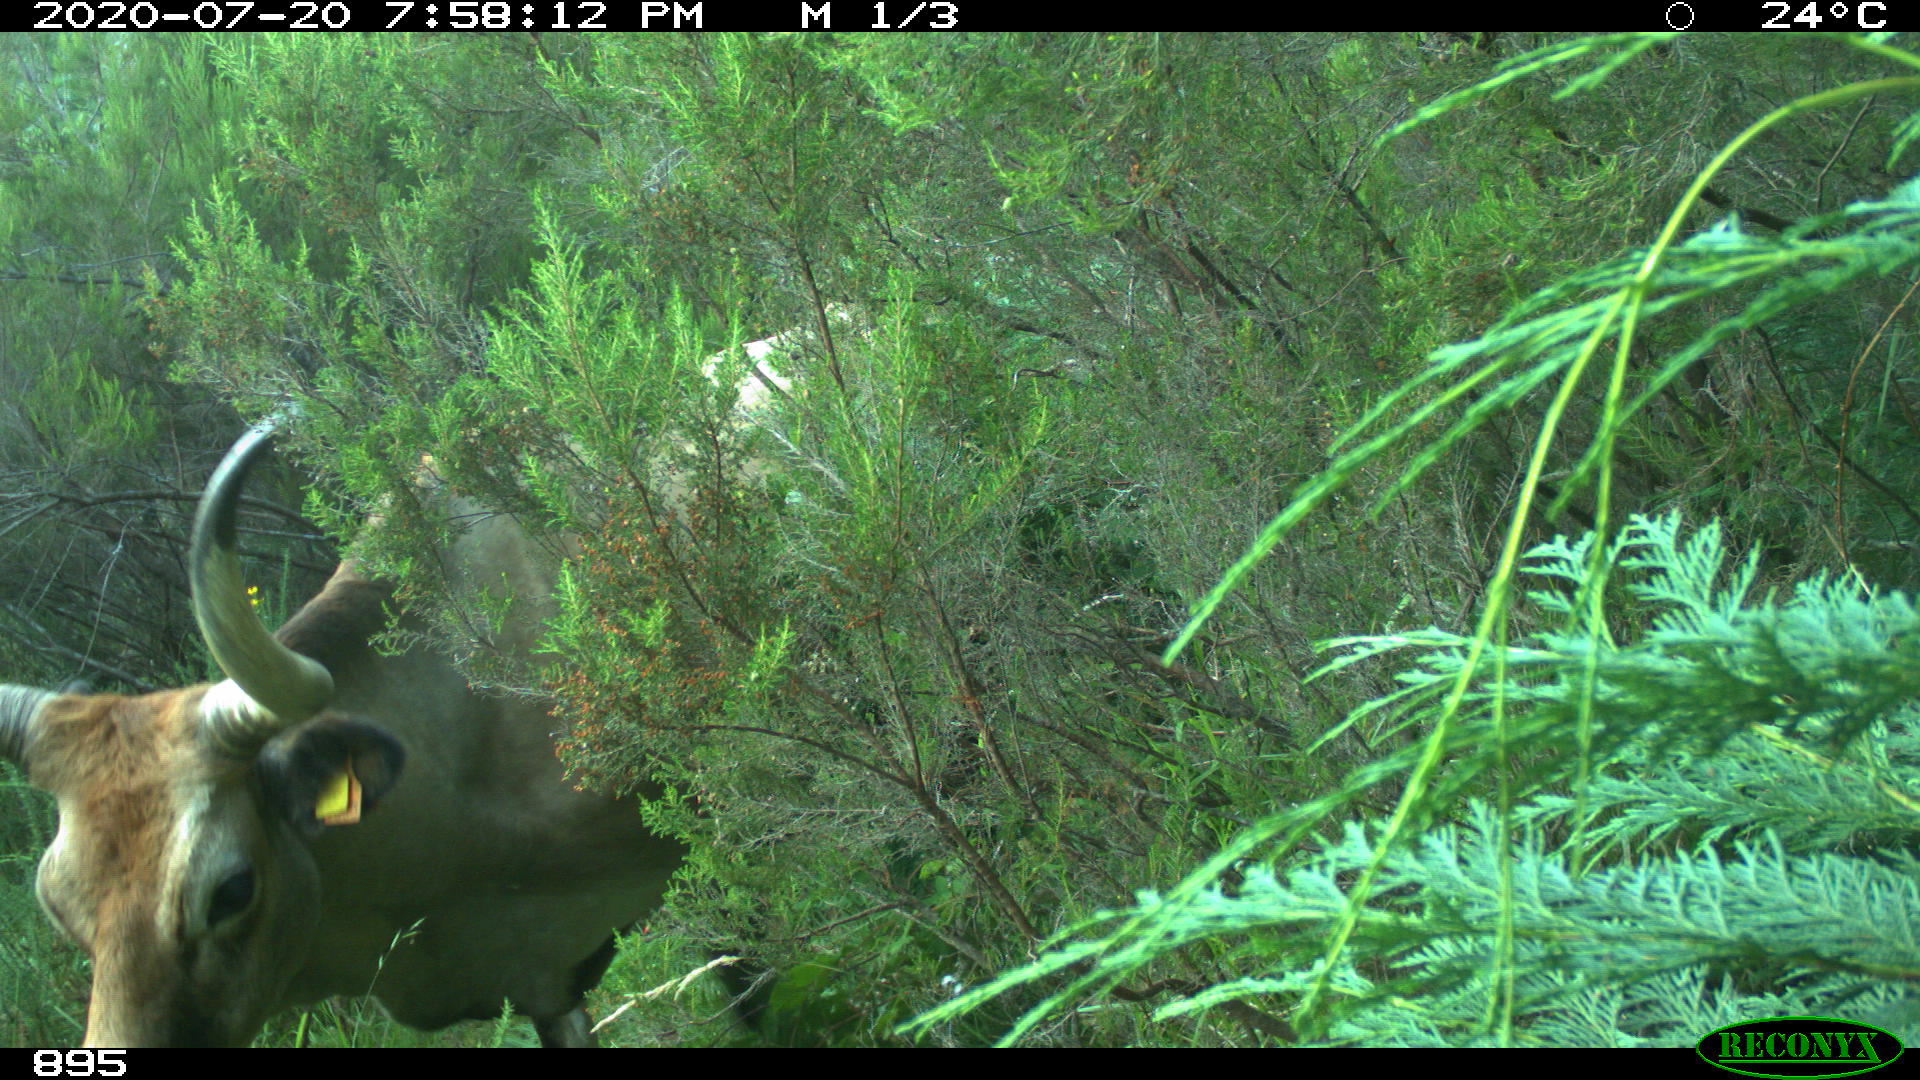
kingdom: Animalia
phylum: Chordata
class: Mammalia
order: Artiodactyla
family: Bovidae
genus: Bos
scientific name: Bos taurus
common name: Domesticated cattle
